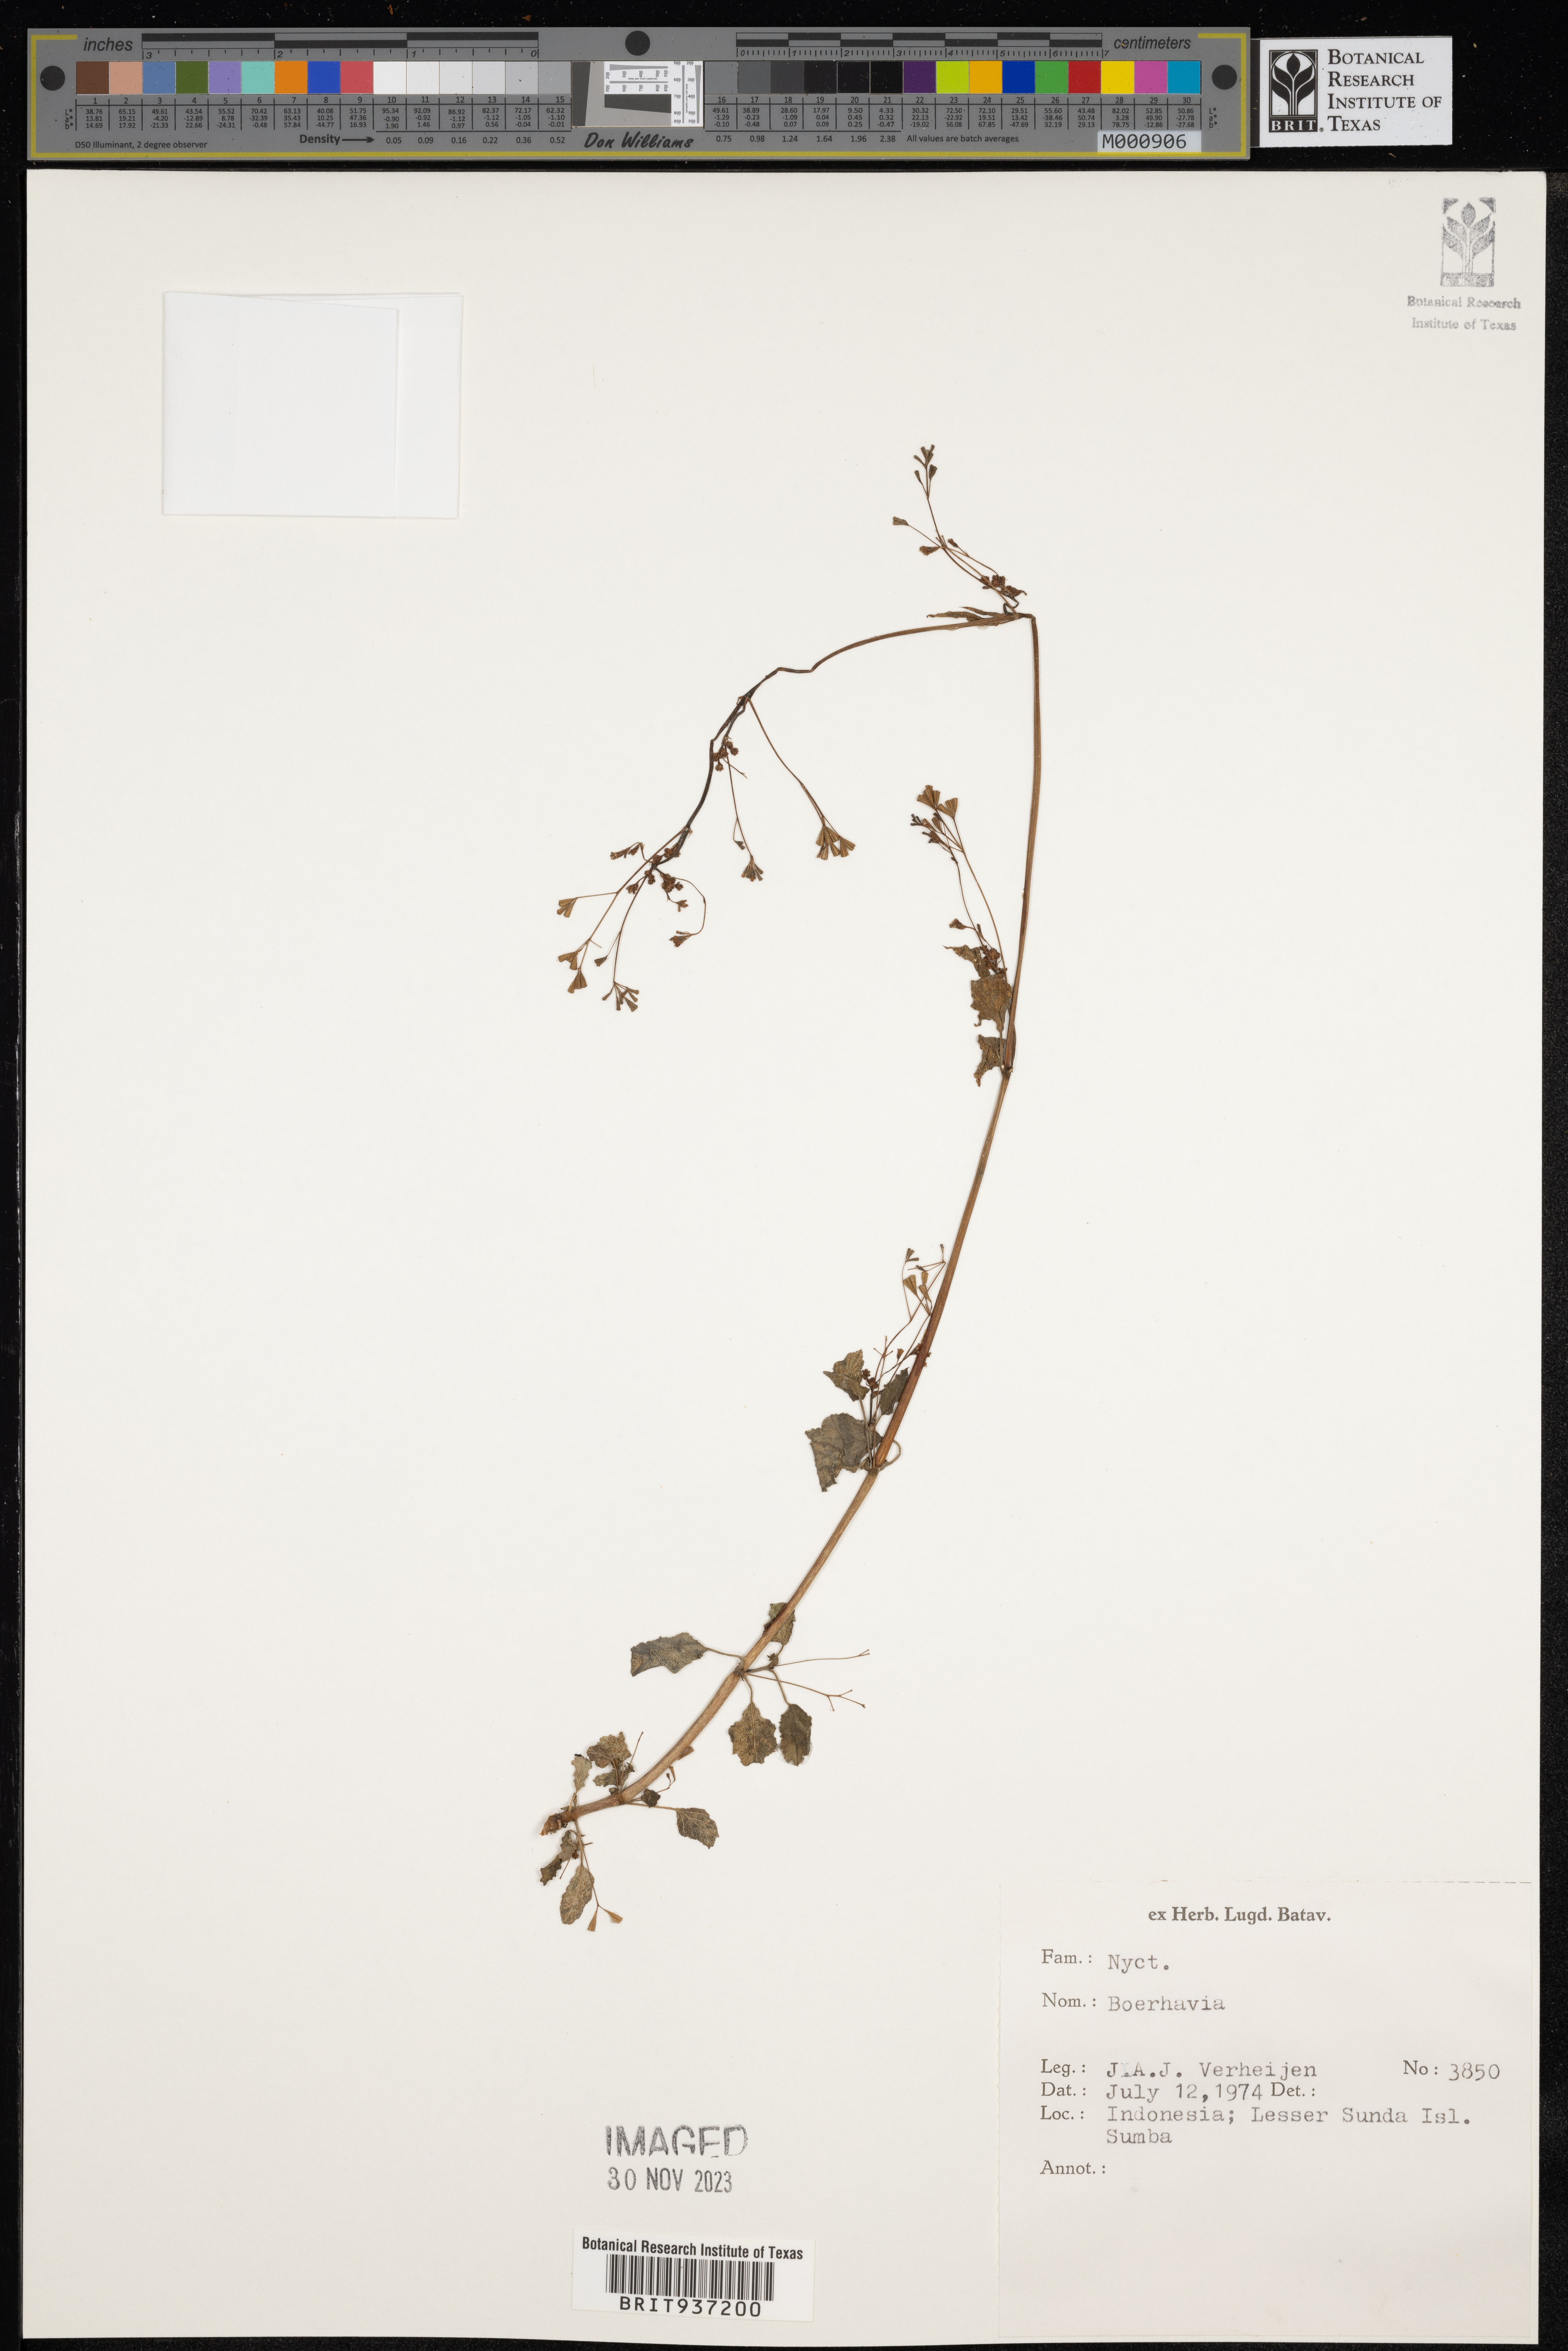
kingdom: Plantae
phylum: Tracheophyta
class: Magnoliopsida
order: Caryophyllales
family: Nyctaginaceae
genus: Boerhavia
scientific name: Boerhavia
